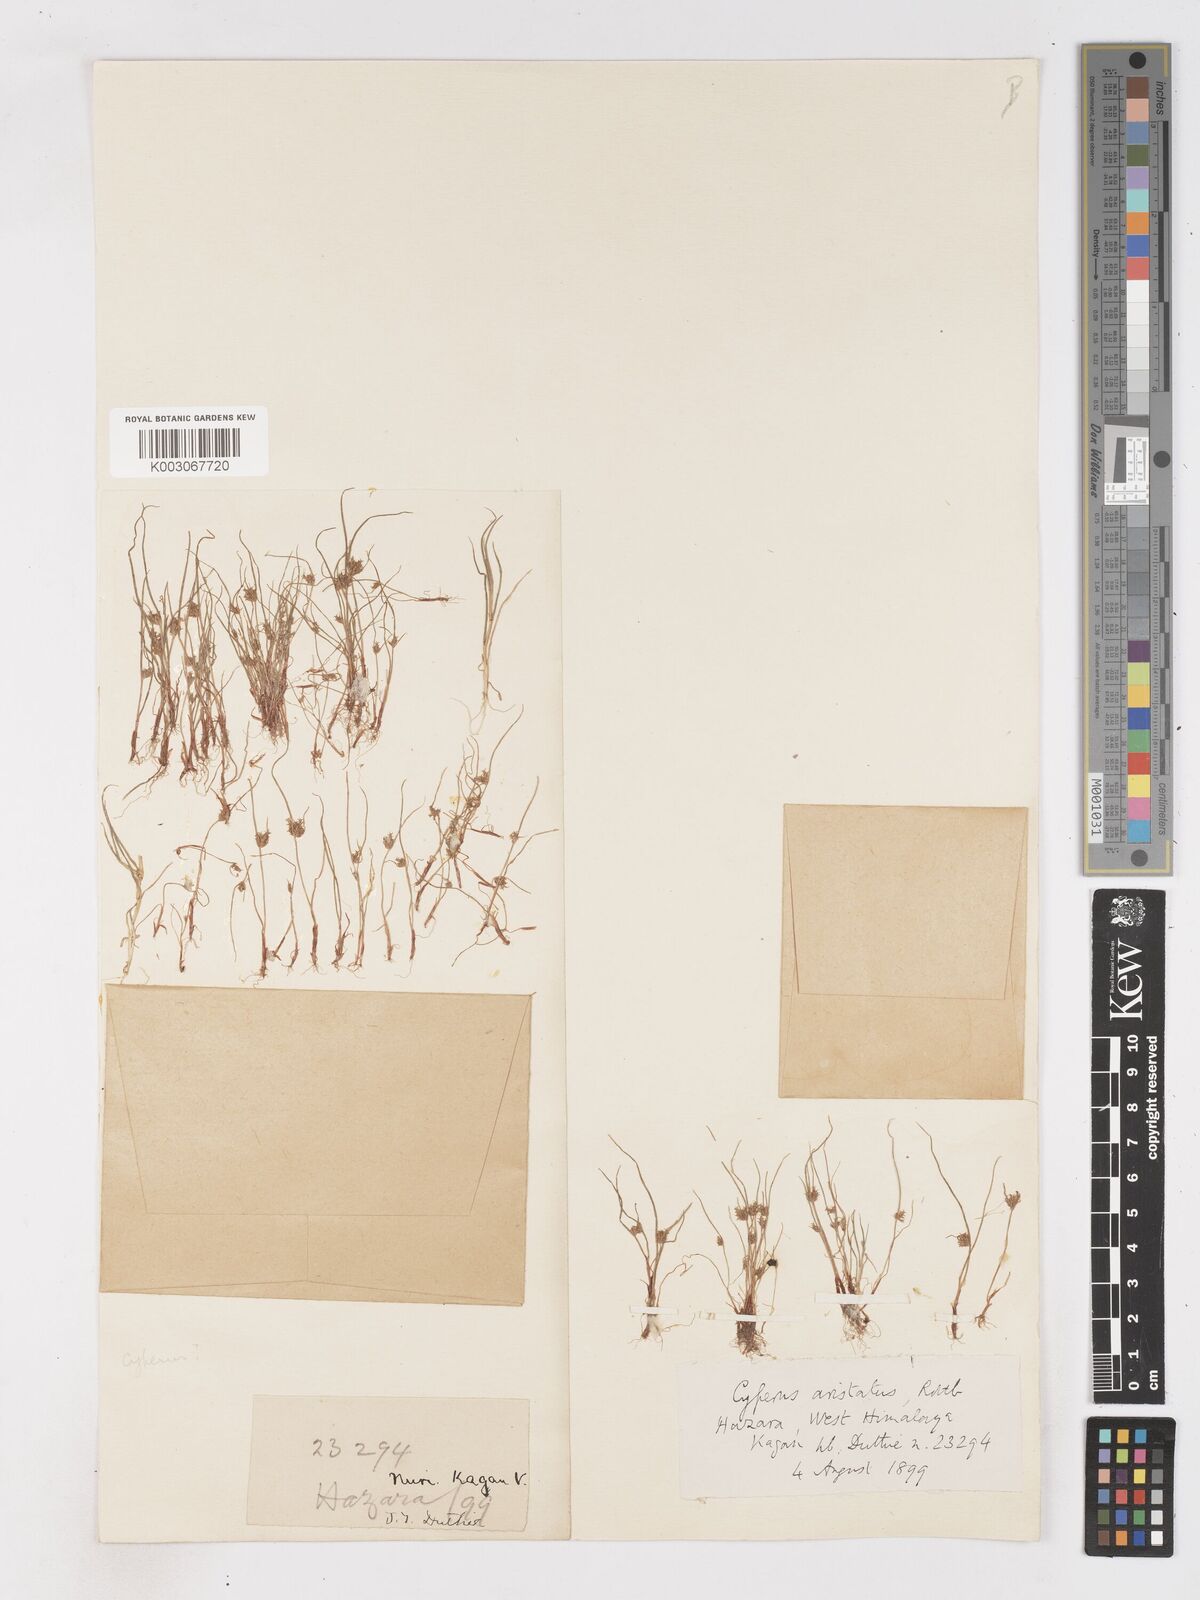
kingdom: Plantae
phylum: Tracheophyta
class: Liliopsida
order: Poales
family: Cyperaceae
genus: Cyperus
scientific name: Cyperus squarrosus
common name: Awned cyperus
